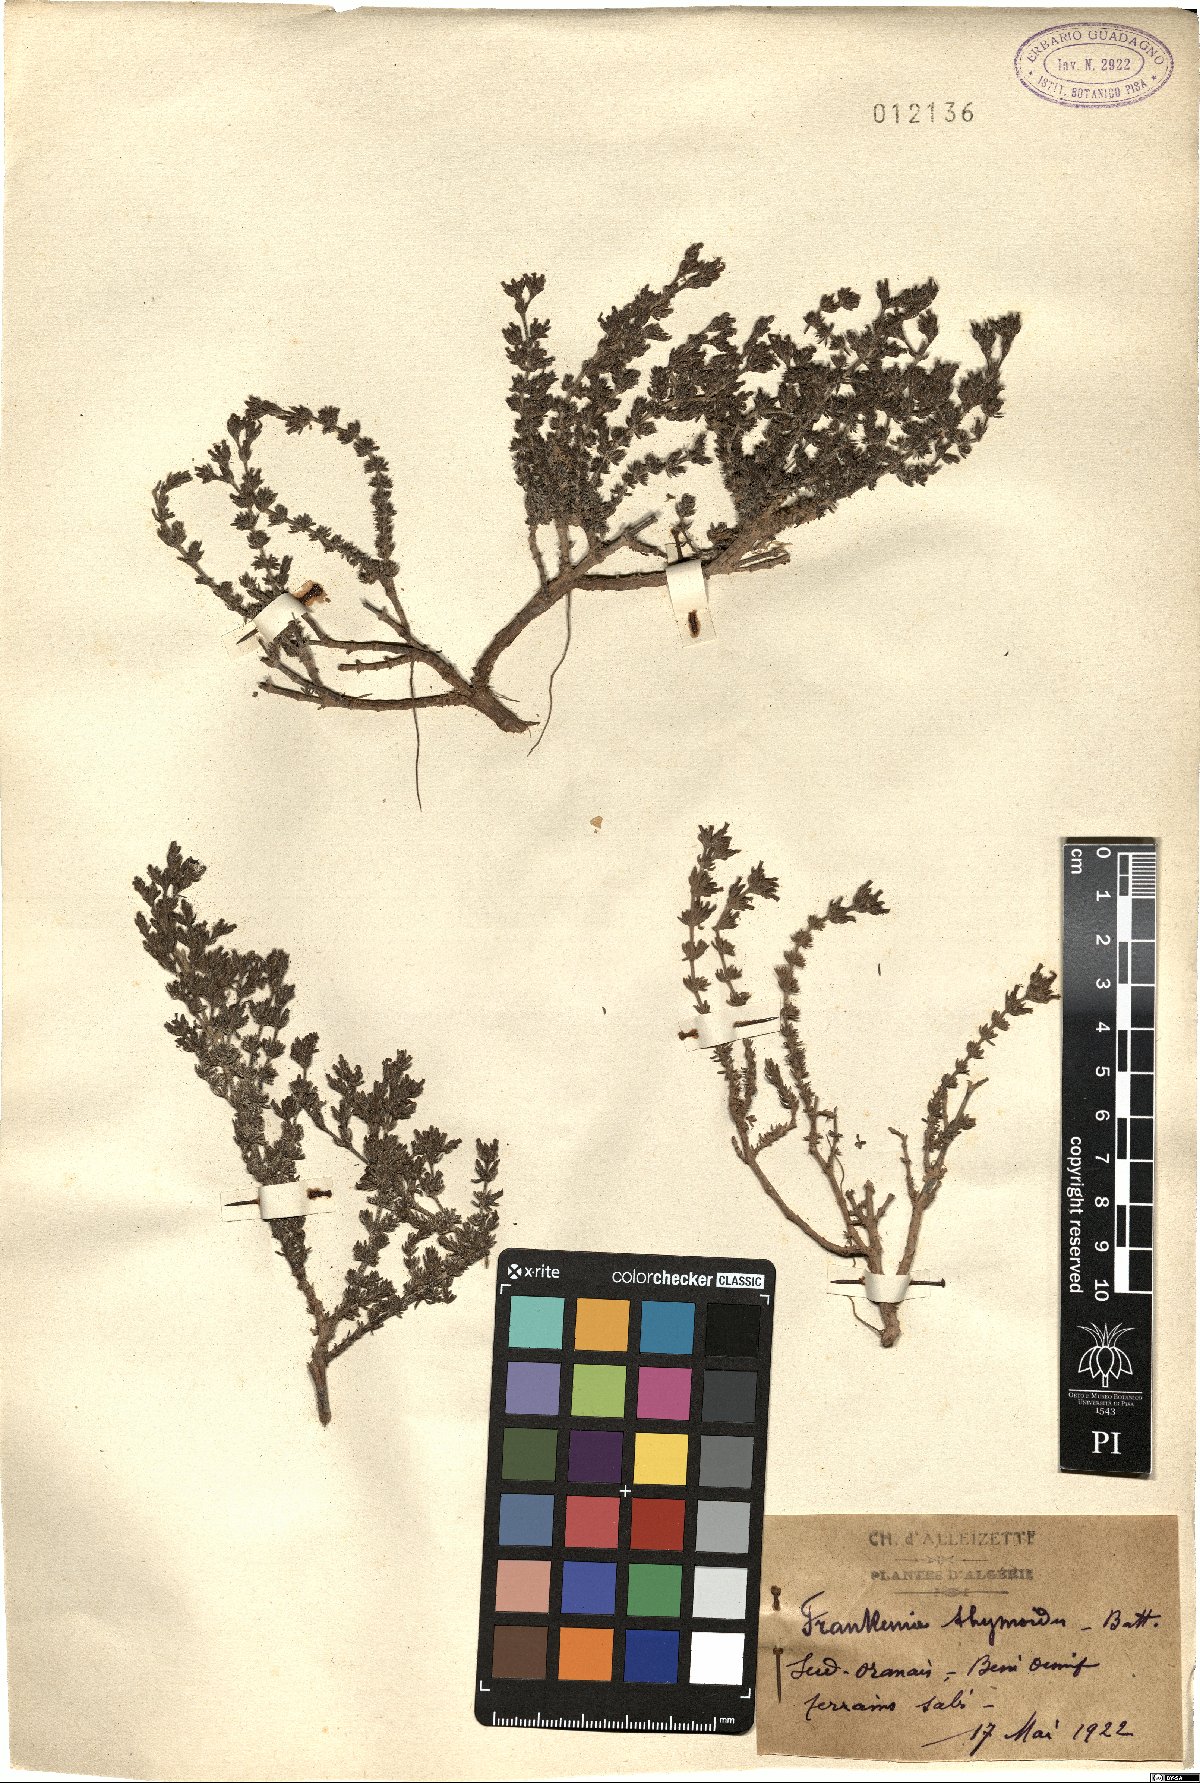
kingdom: Plantae
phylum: Tracheophyta
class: Magnoliopsida
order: Caryophyllales
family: Frankeniaceae
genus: Frankenia
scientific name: Frankenia corymbosa
